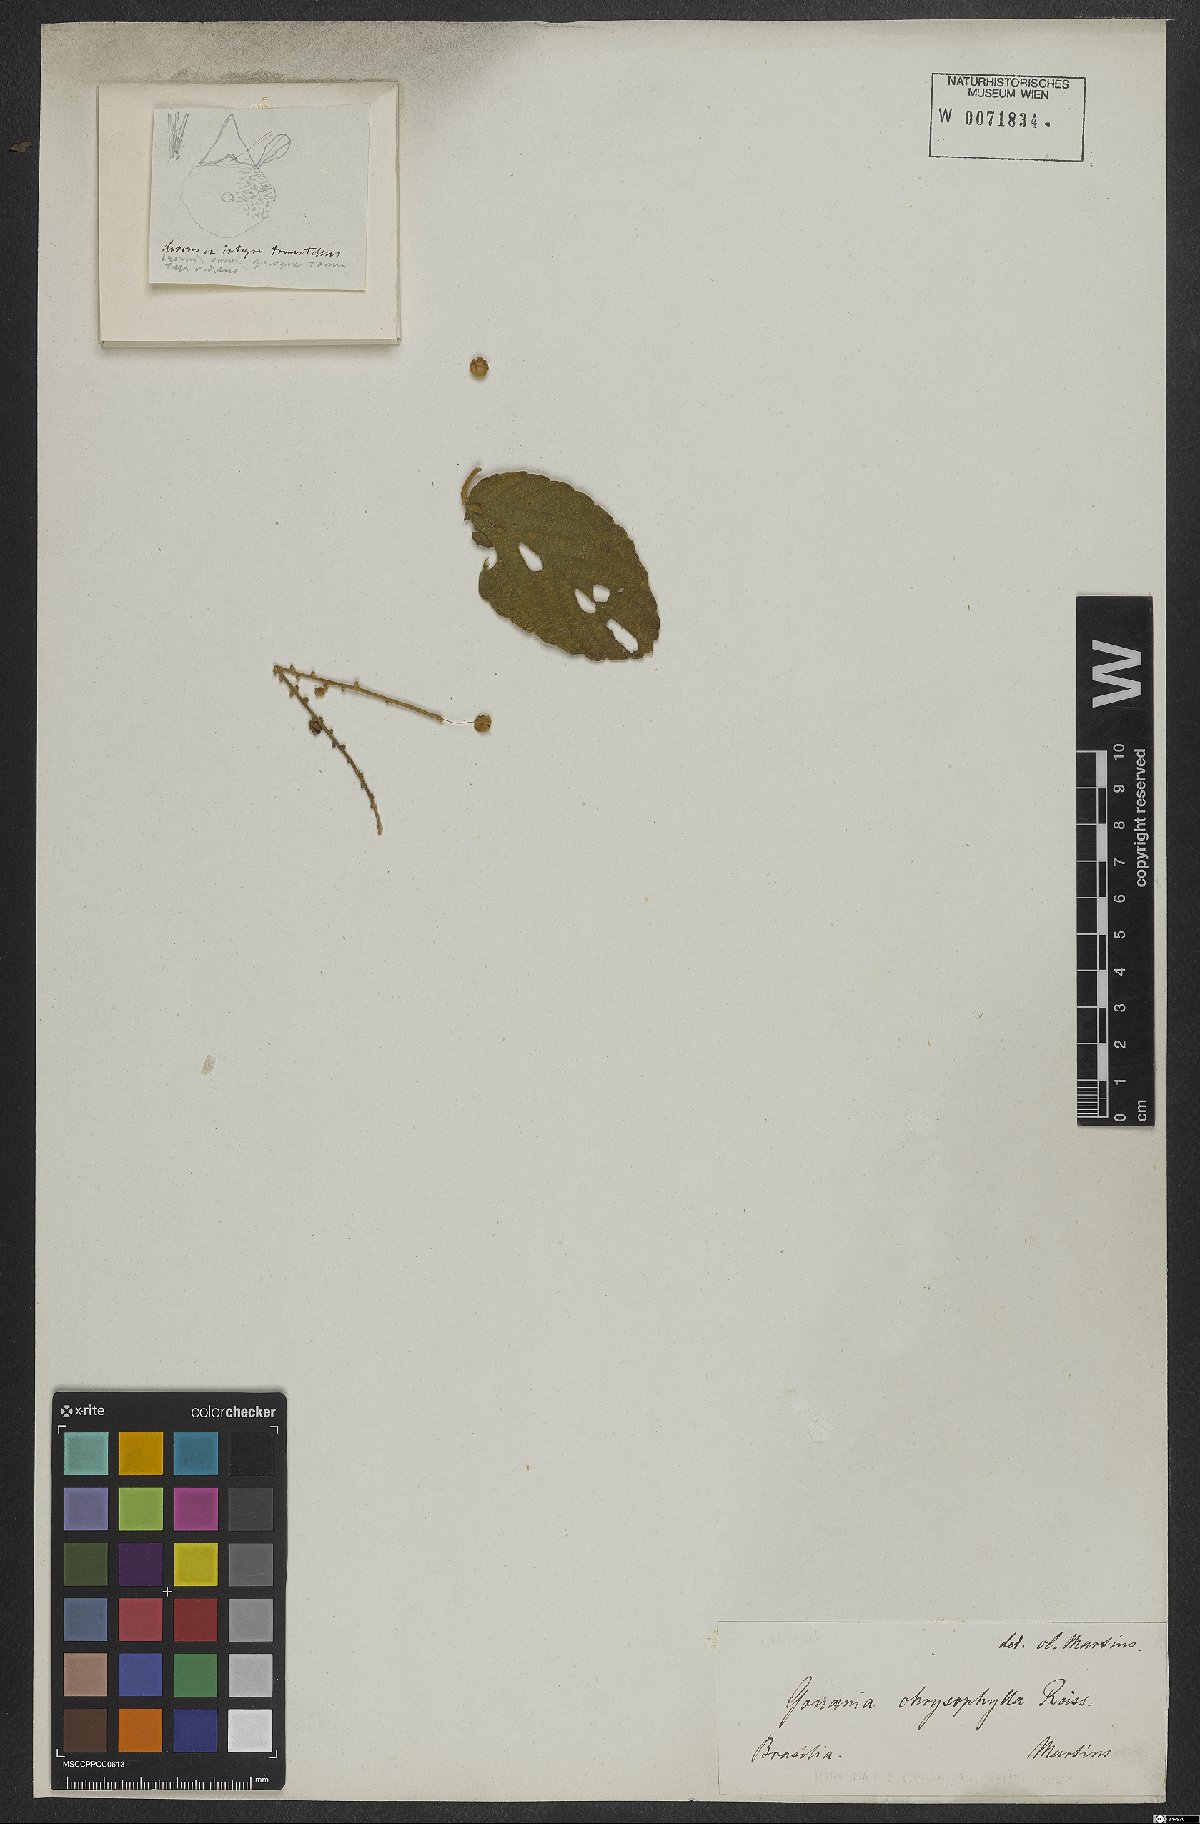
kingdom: Plantae
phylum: Tracheophyta
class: Magnoliopsida
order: Rosales
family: Rhamnaceae
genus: Gouania
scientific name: Gouania latifolia
